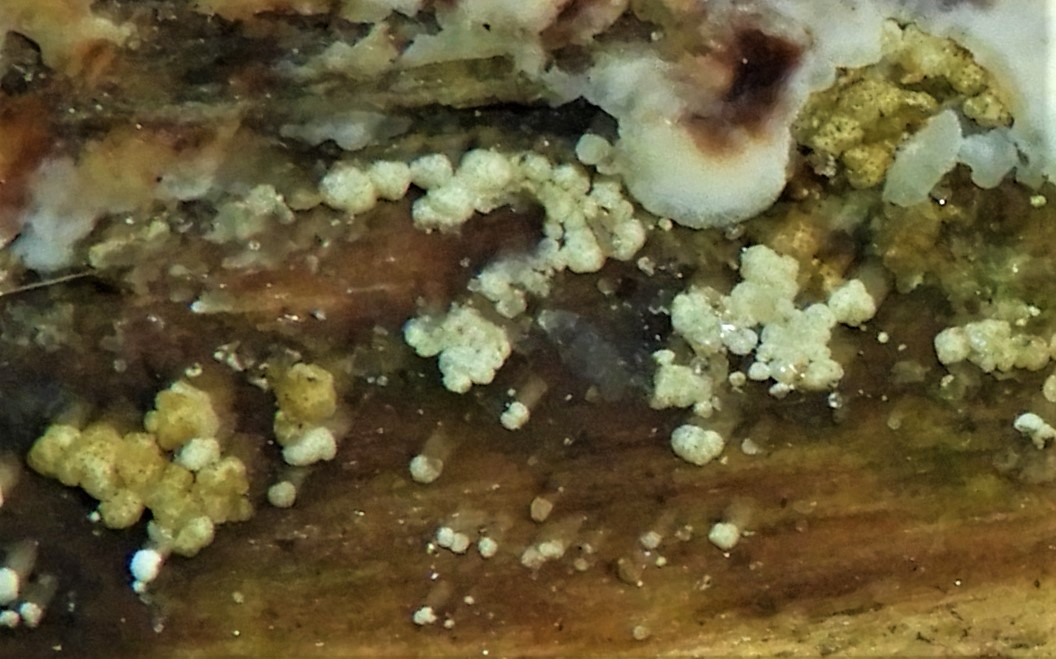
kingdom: Fungi
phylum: Ascomycota
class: Sordariomycetes
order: Hypocreales
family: Hypocreaceae
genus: Trichoderma
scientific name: Trichoderma
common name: kødkerne
